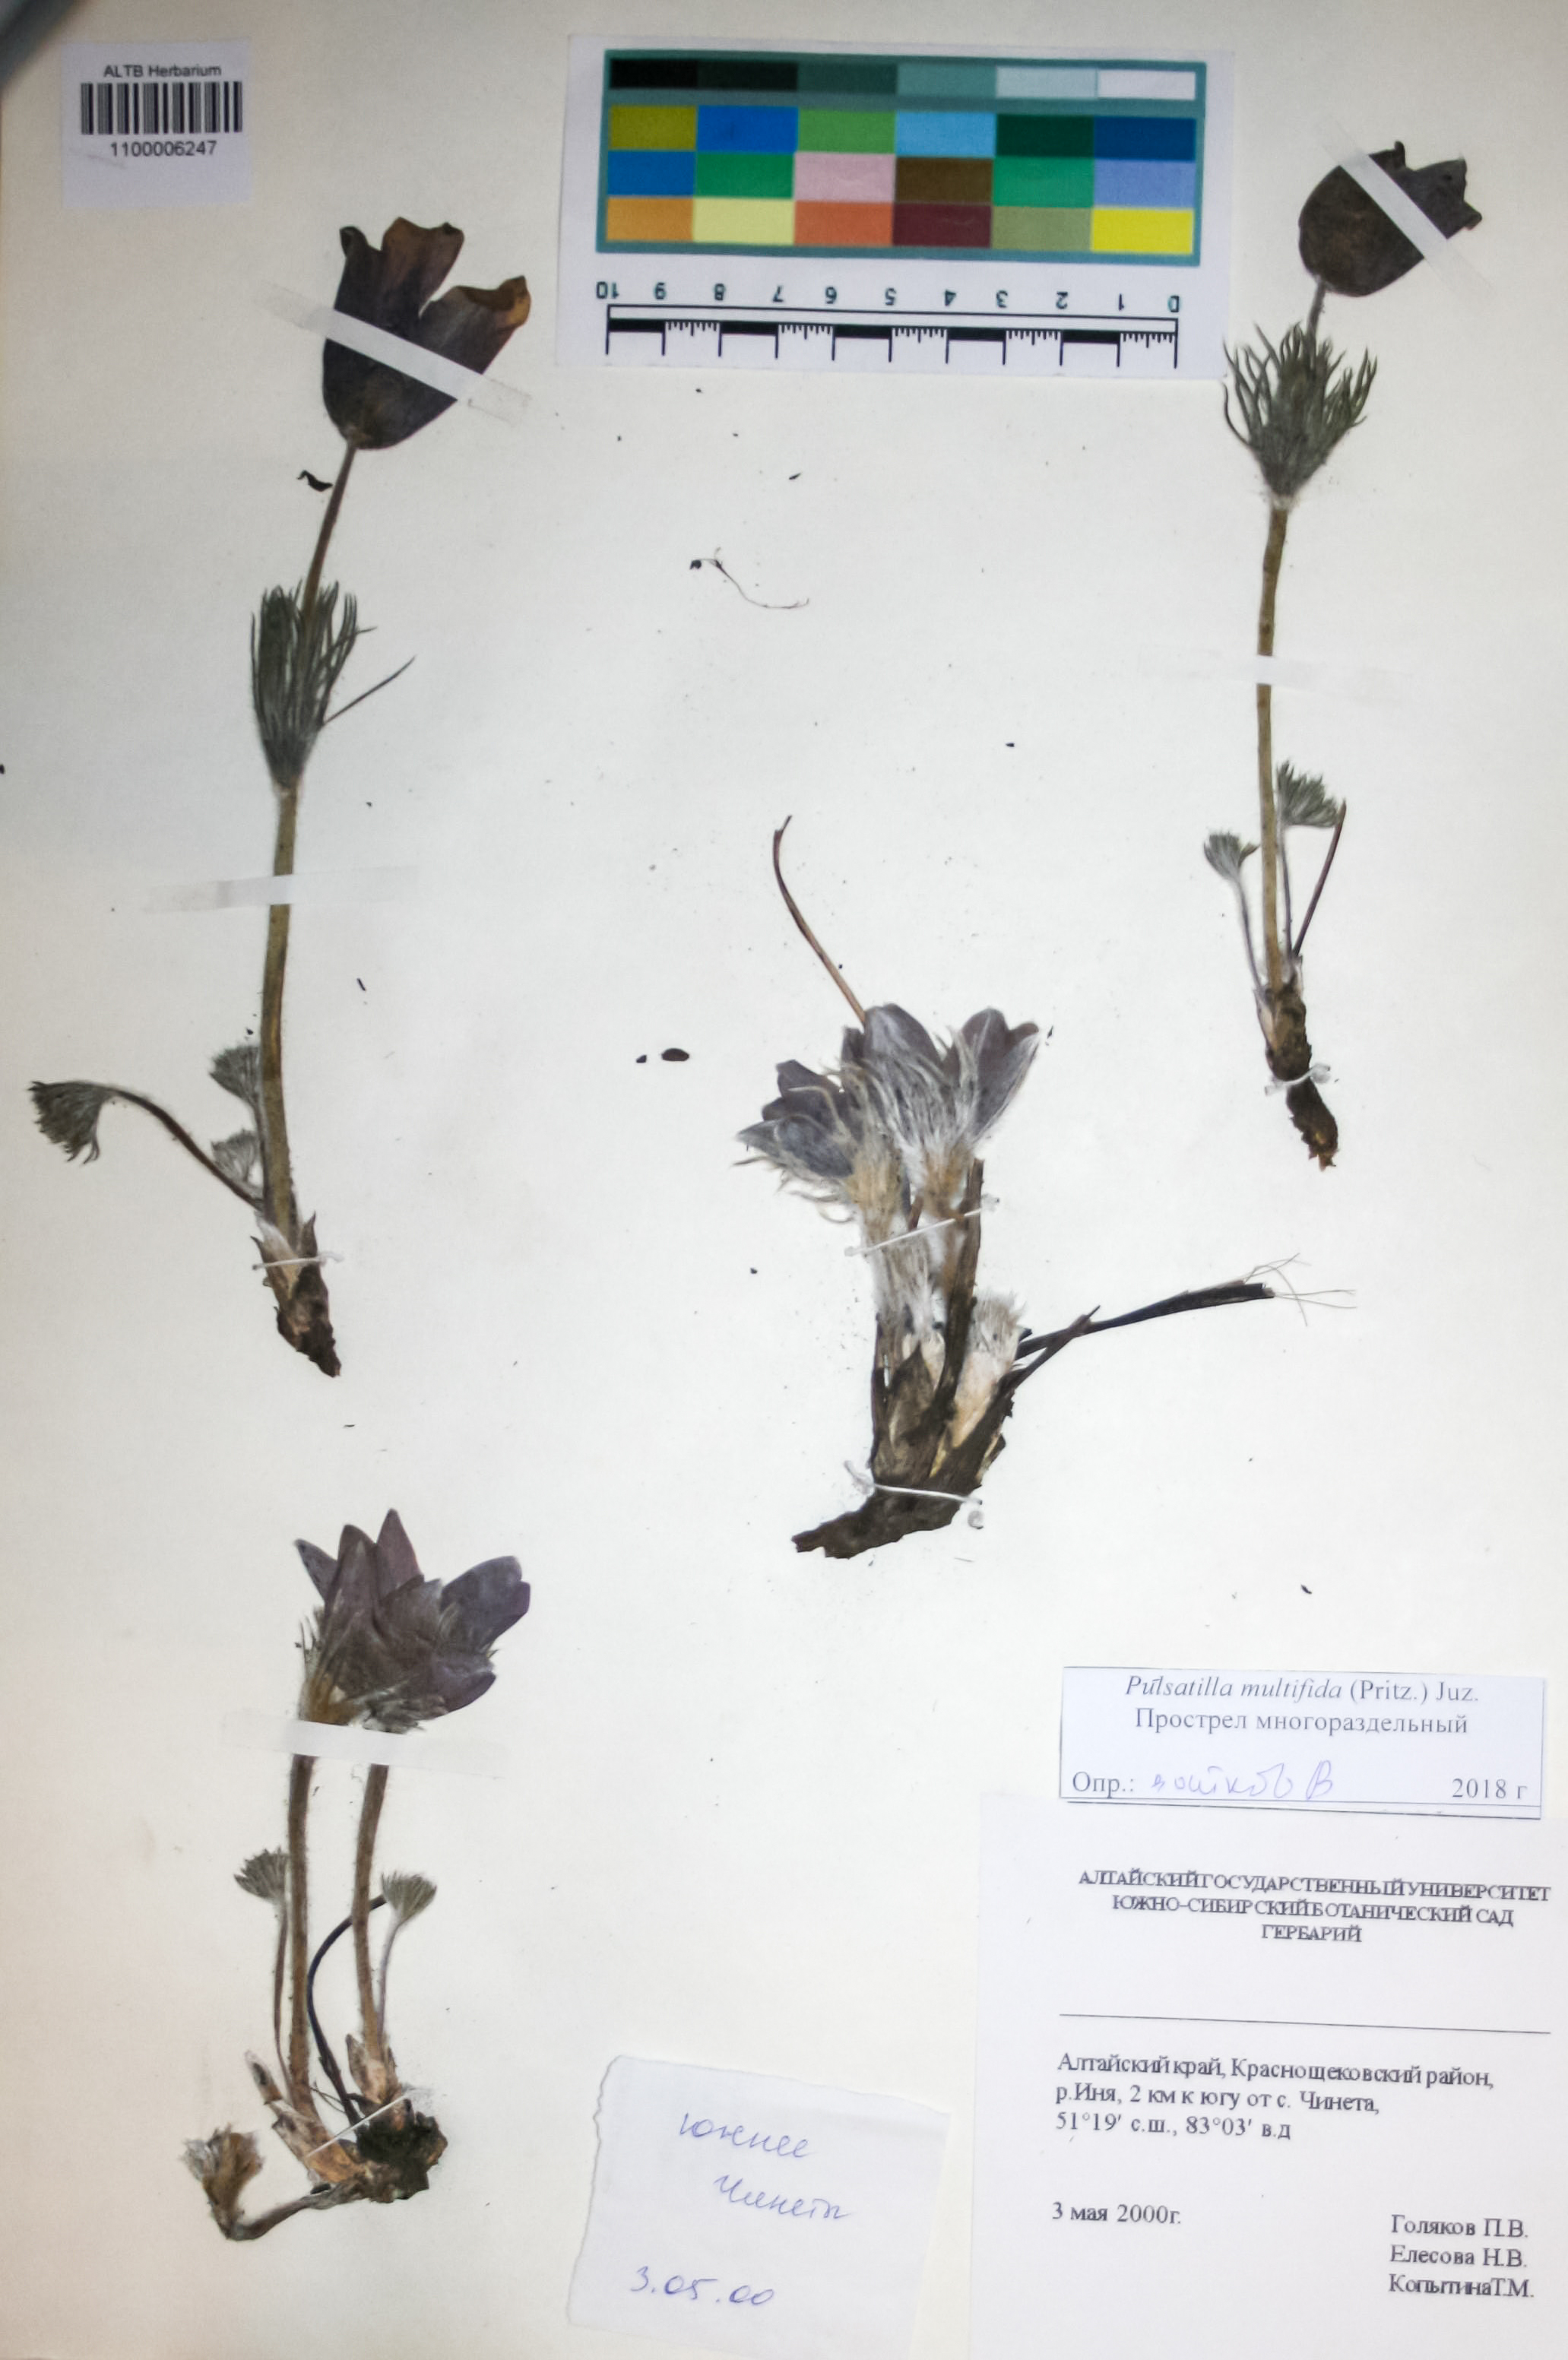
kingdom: Plantae
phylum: Tracheophyta
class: Magnoliopsida
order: Ranunculales
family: Ranunculaceae
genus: Pulsatilla
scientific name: Pulsatilla patens
